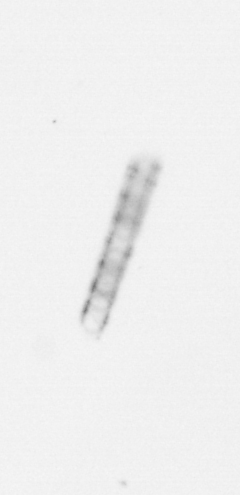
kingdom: Chromista
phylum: Ochrophyta
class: Bacillariophyceae
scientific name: Bacillariophyceae
